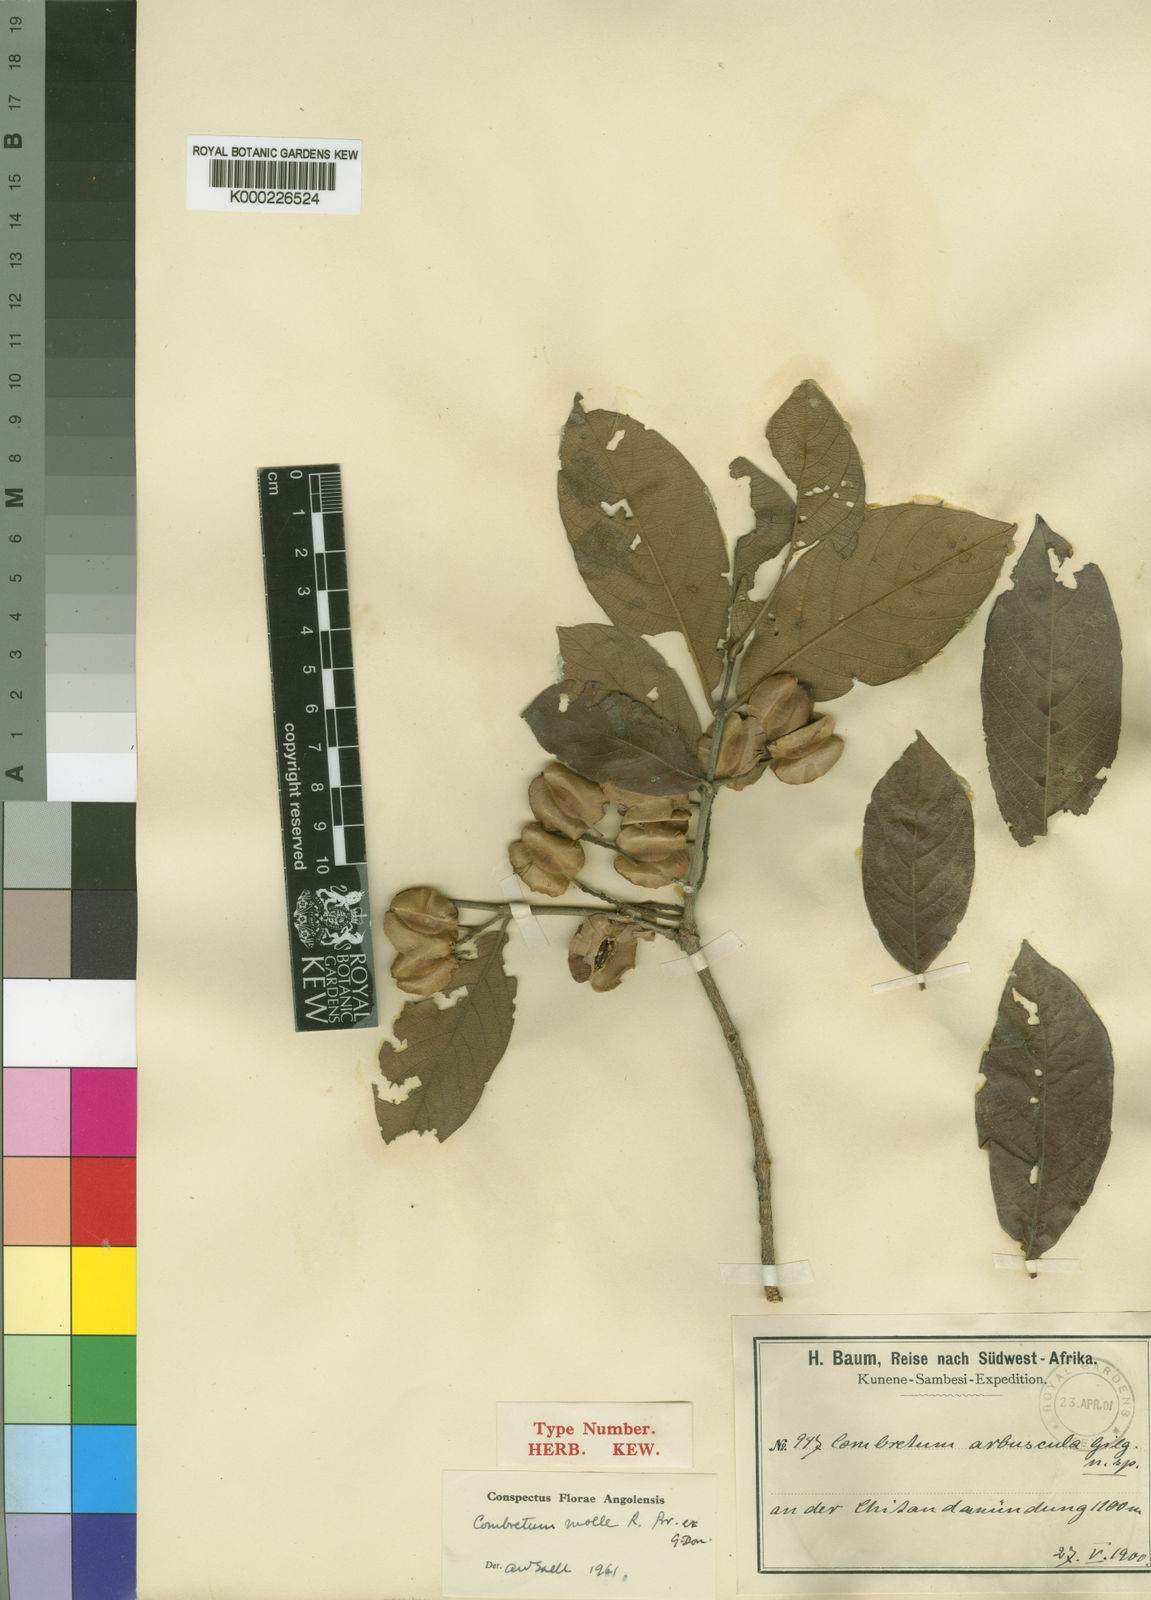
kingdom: Plantae
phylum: Tracheophyta
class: Magnoliopsida
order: Myrtales
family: Combretaceae
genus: Combretum
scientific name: Combretum molle
